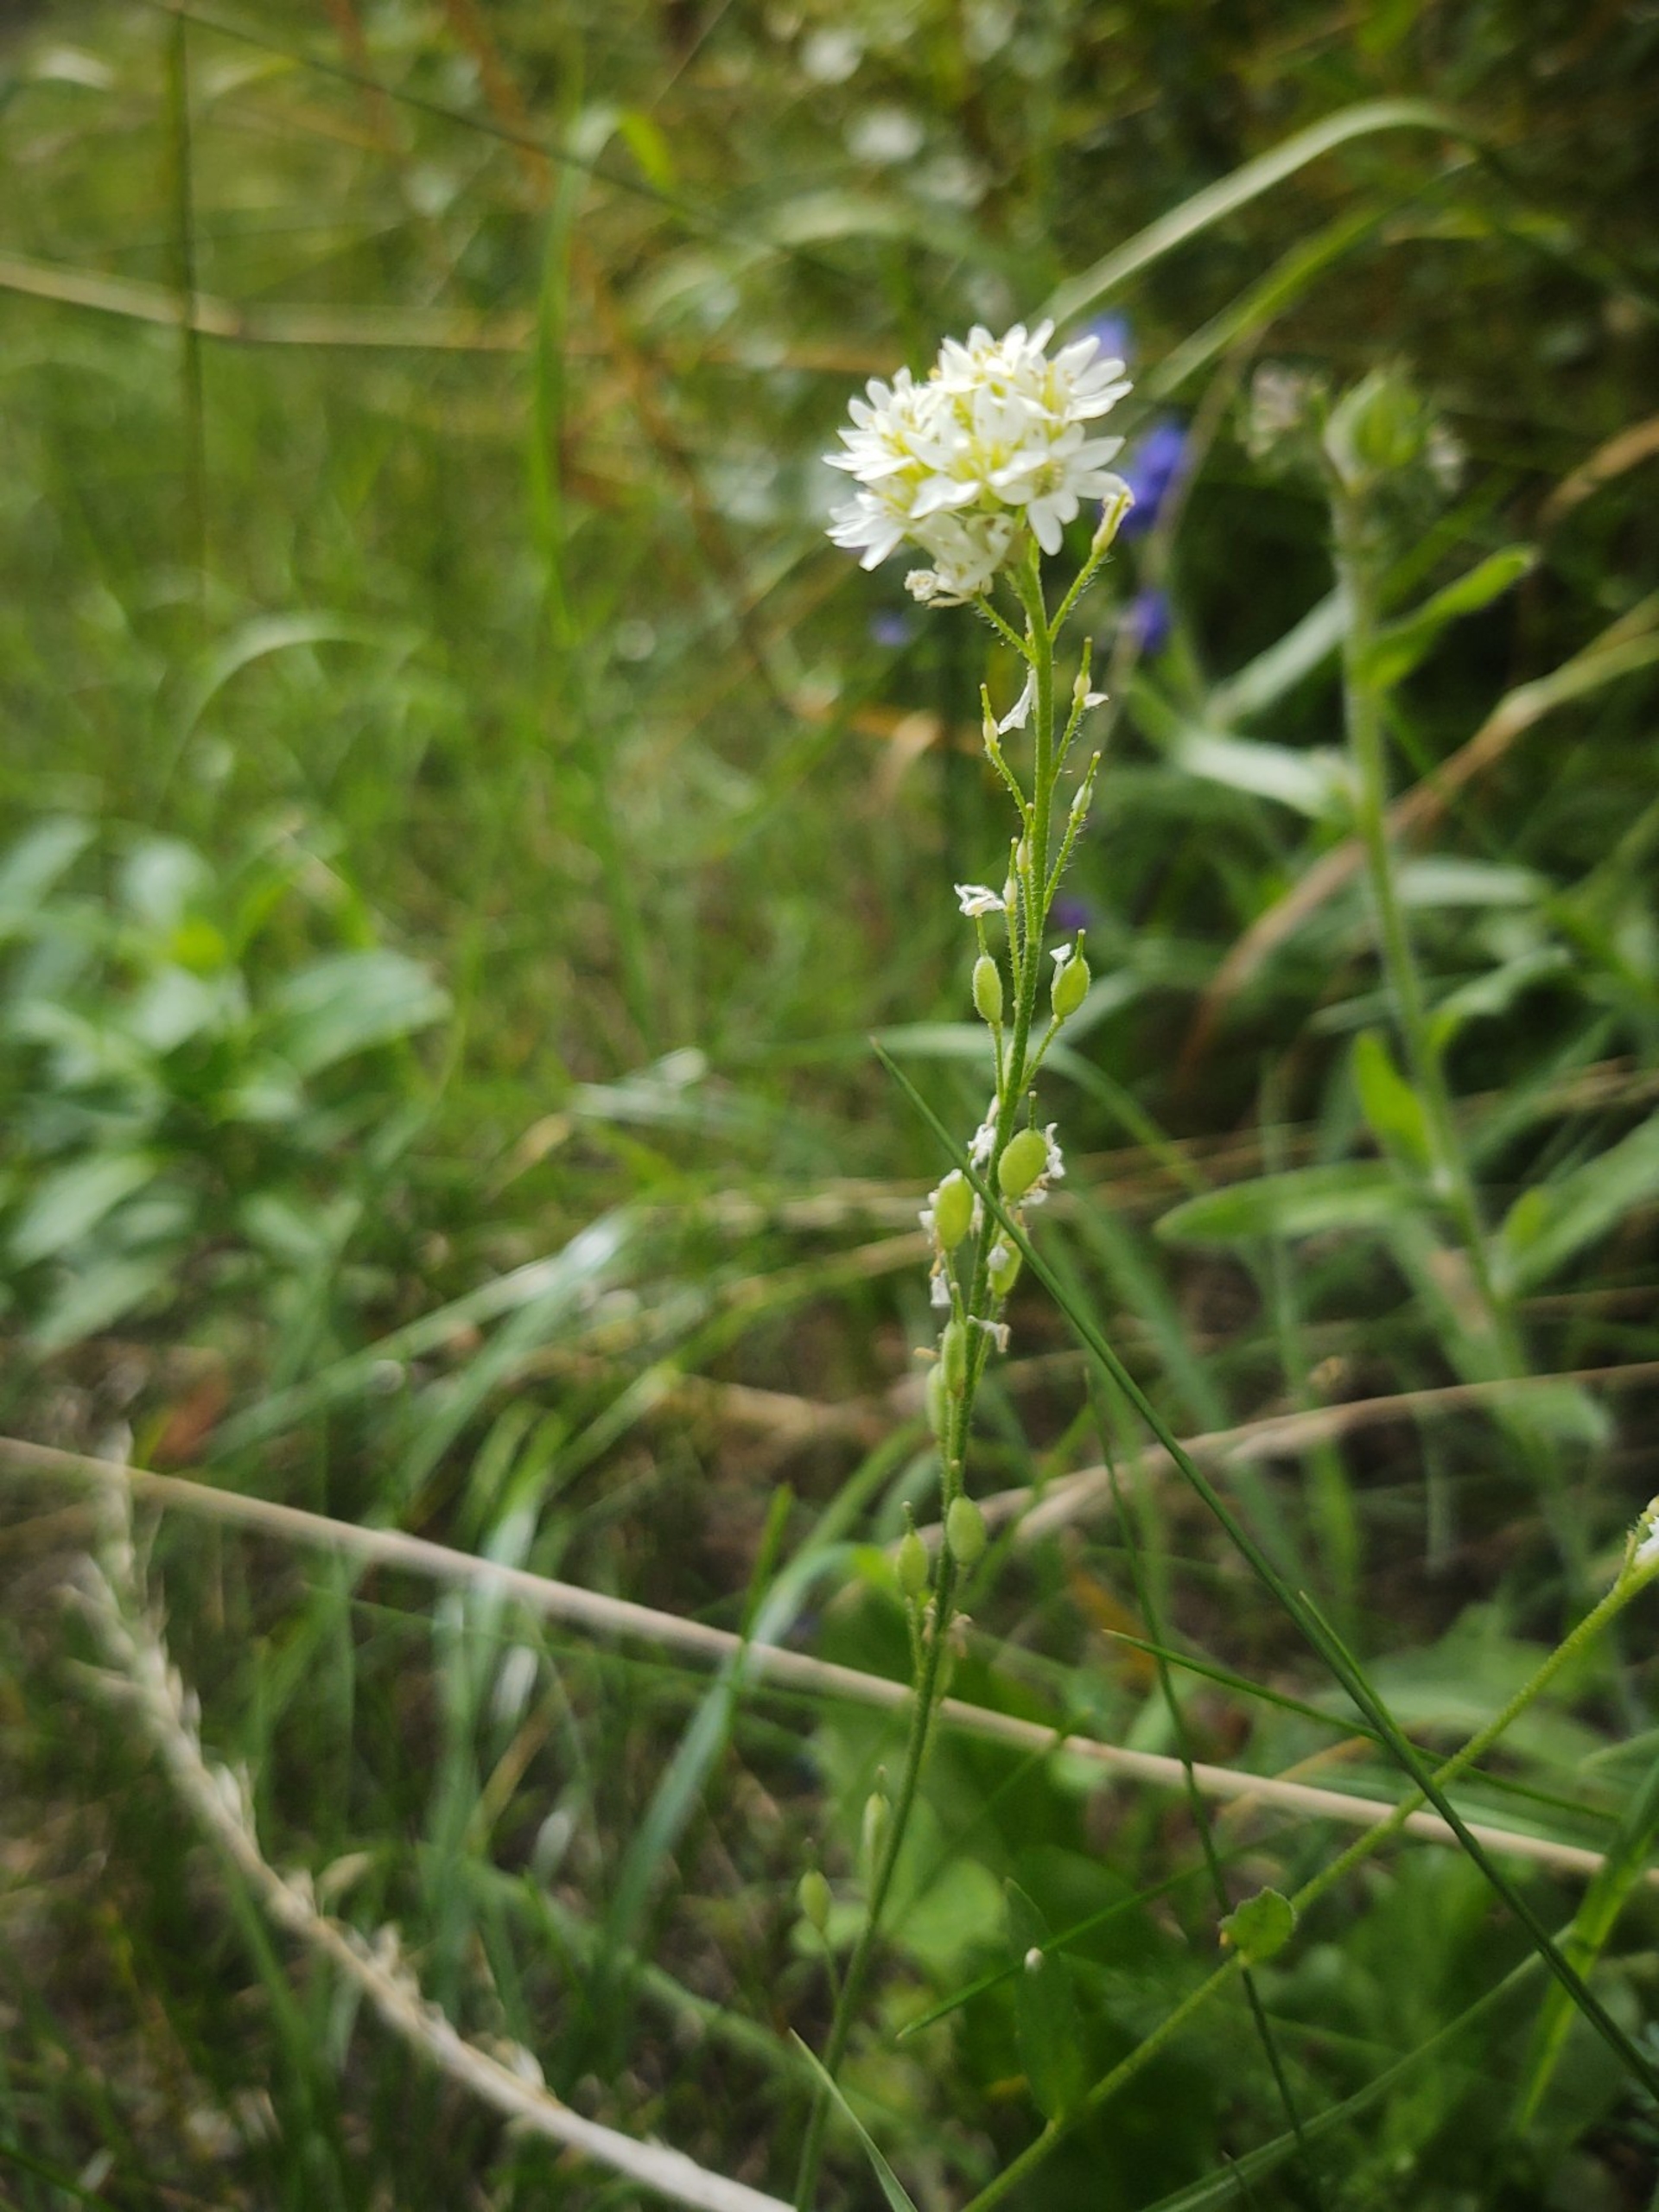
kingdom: Plantae
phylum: Tracheophyta
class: Magnoliopsida
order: Brassicales
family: Brassicaceae
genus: Berteroa
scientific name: Berteroa incana
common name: Kløvplade
